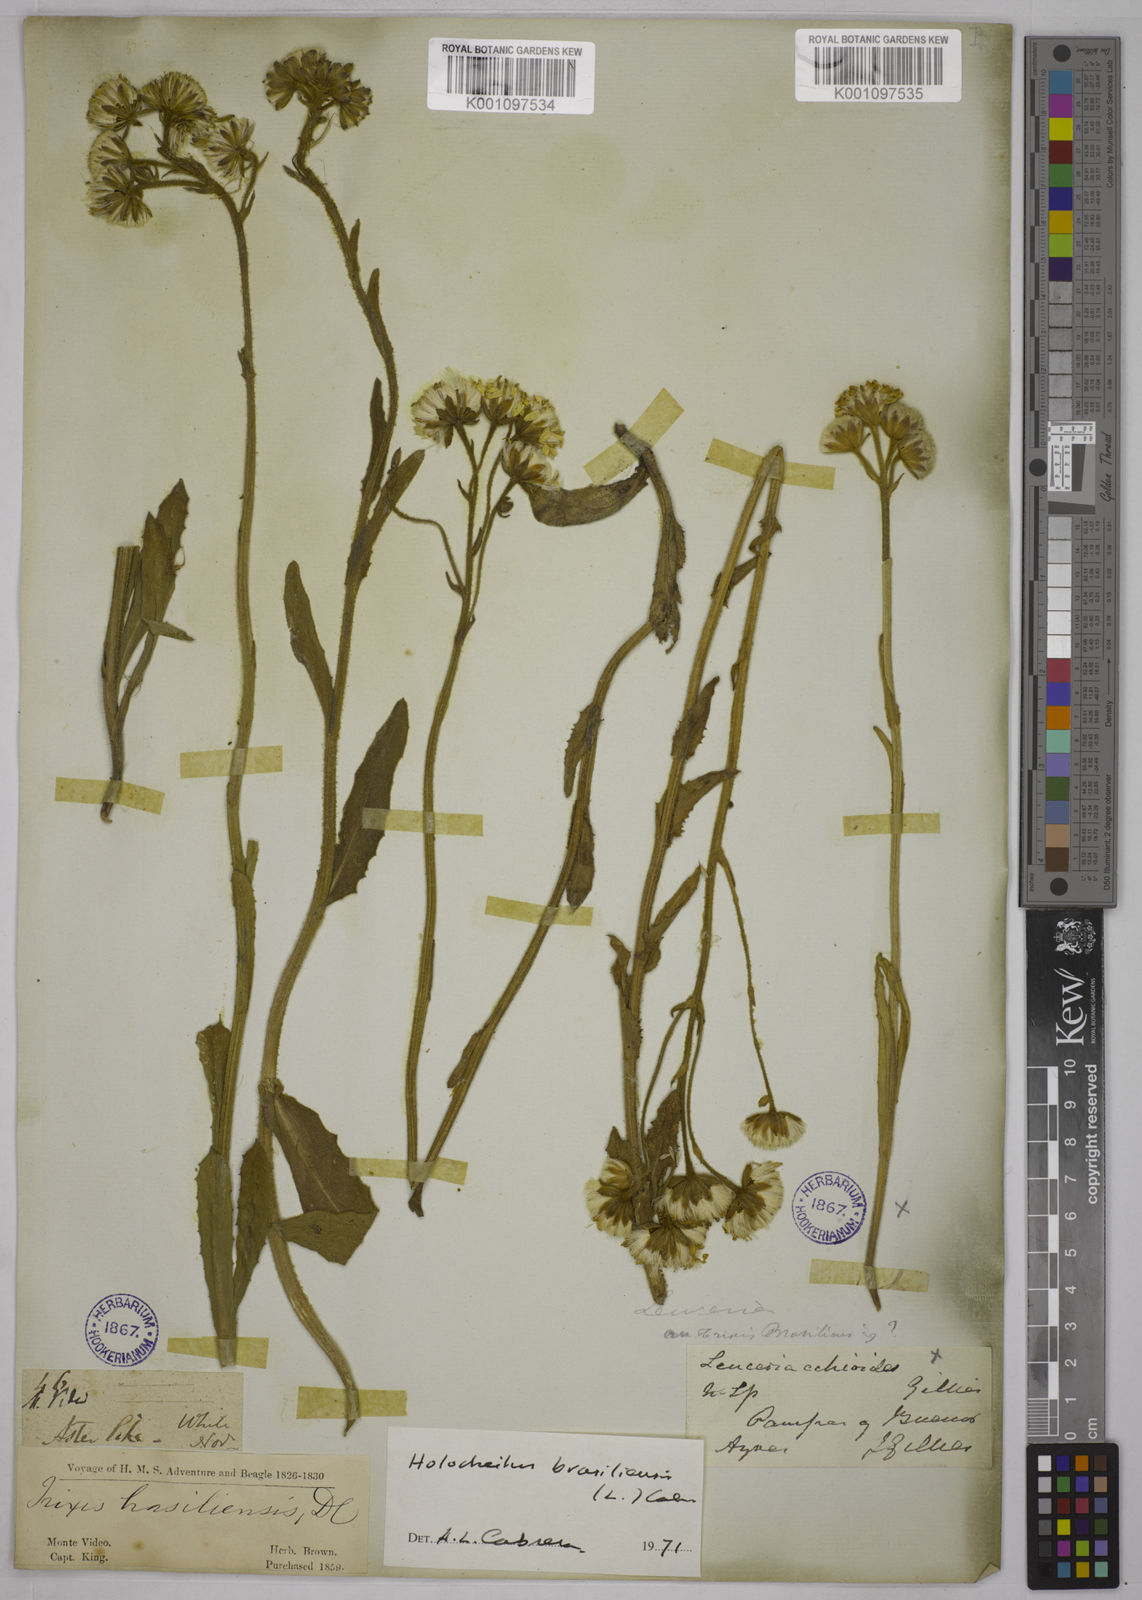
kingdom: Plantae
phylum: Tracheophyta
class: Magnoliopsida
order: Asterales
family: Asteraceae
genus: Holocheilus
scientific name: Holocheilus brasiliensis
